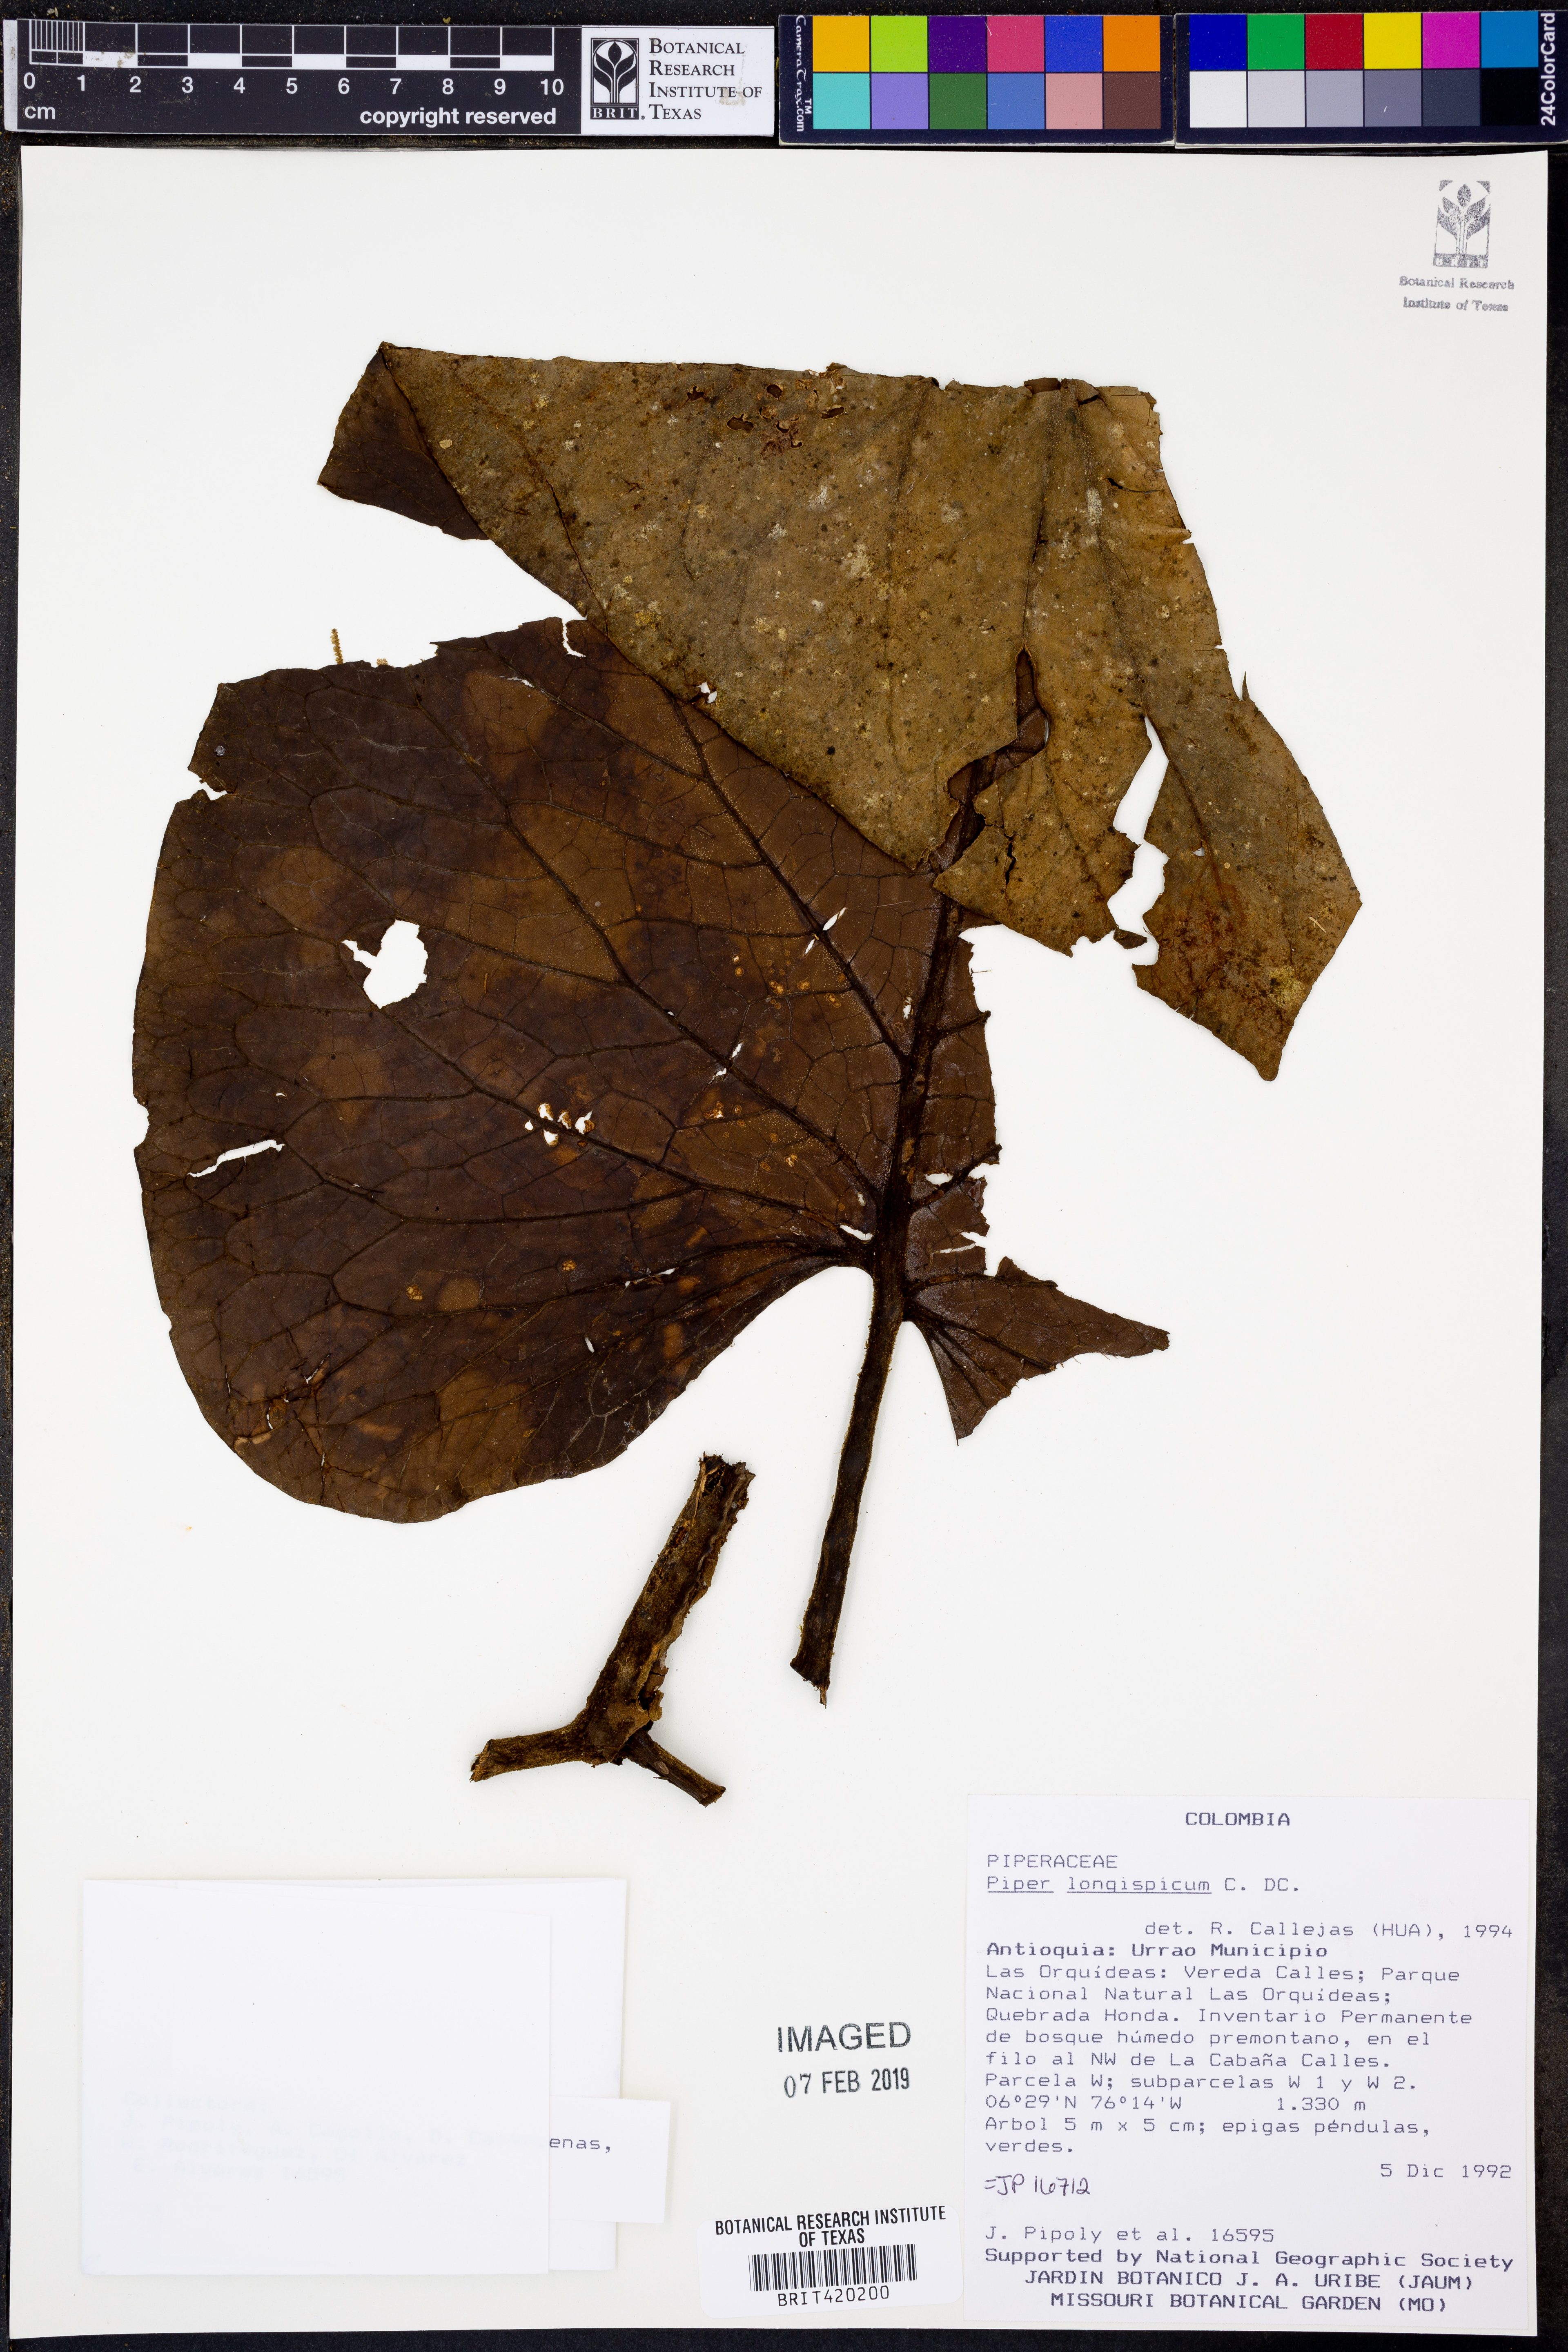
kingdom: Plantae
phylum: Tracheophyta
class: Magnoliopsida
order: Piperales
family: Piperaceae
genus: Piper
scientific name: Piper longispicum
